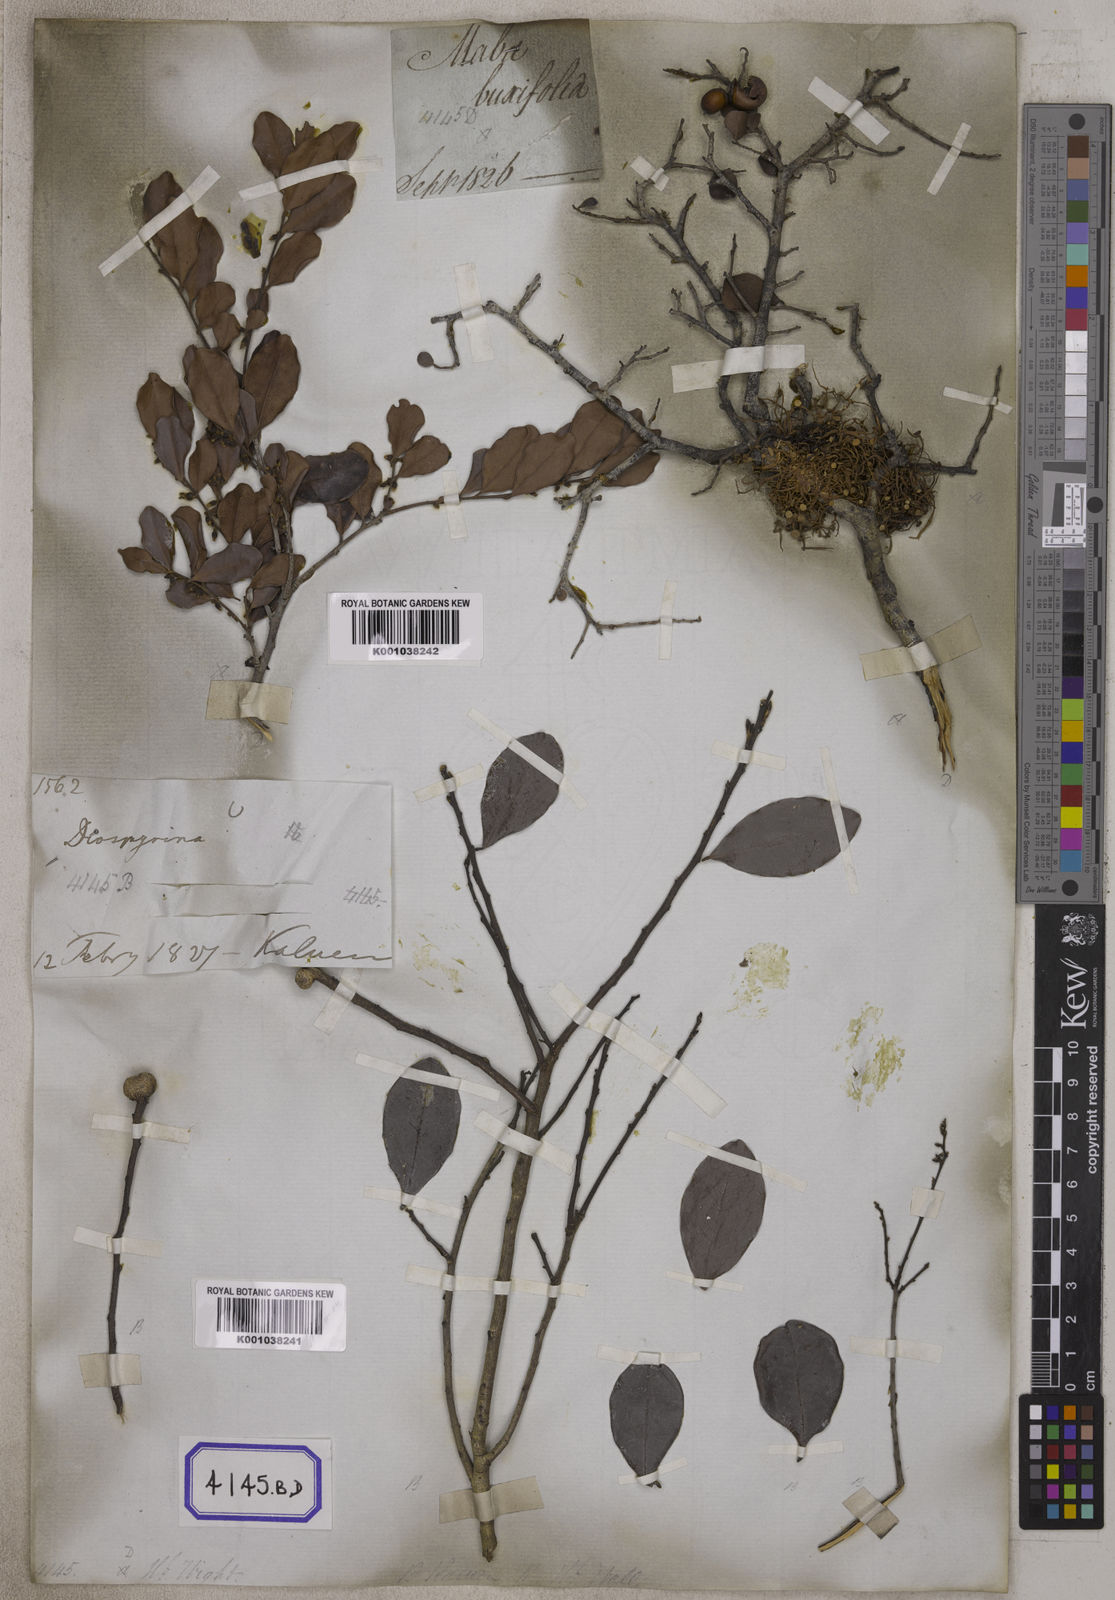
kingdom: Plantae
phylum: Tracheophyta
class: Magnoliopsida
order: Ericales
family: Ebenaceae
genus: Diospyros
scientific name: Diospyros ferrea
